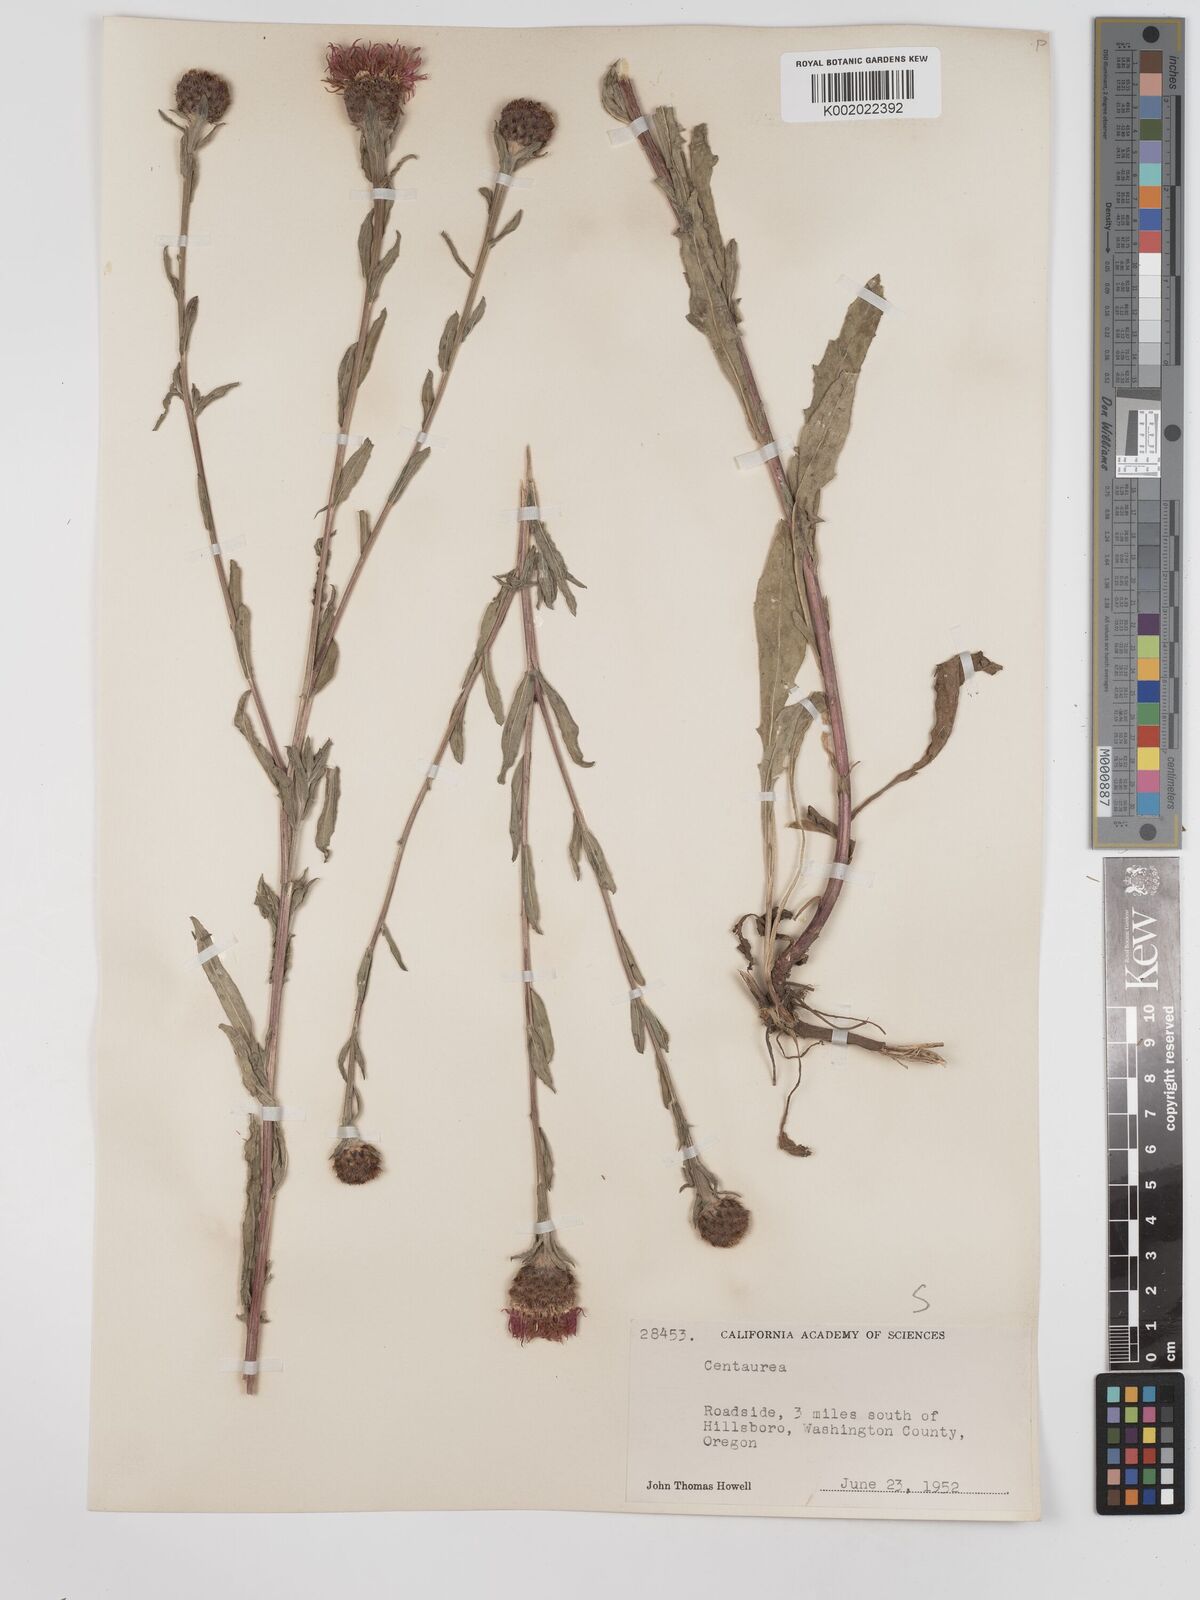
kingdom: Plantae
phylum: Tracheophyta
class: Magnoliopsida
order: Asterales
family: Asteraceae
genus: Centaurea
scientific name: Centaurea jacea
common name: Brown knapweed
